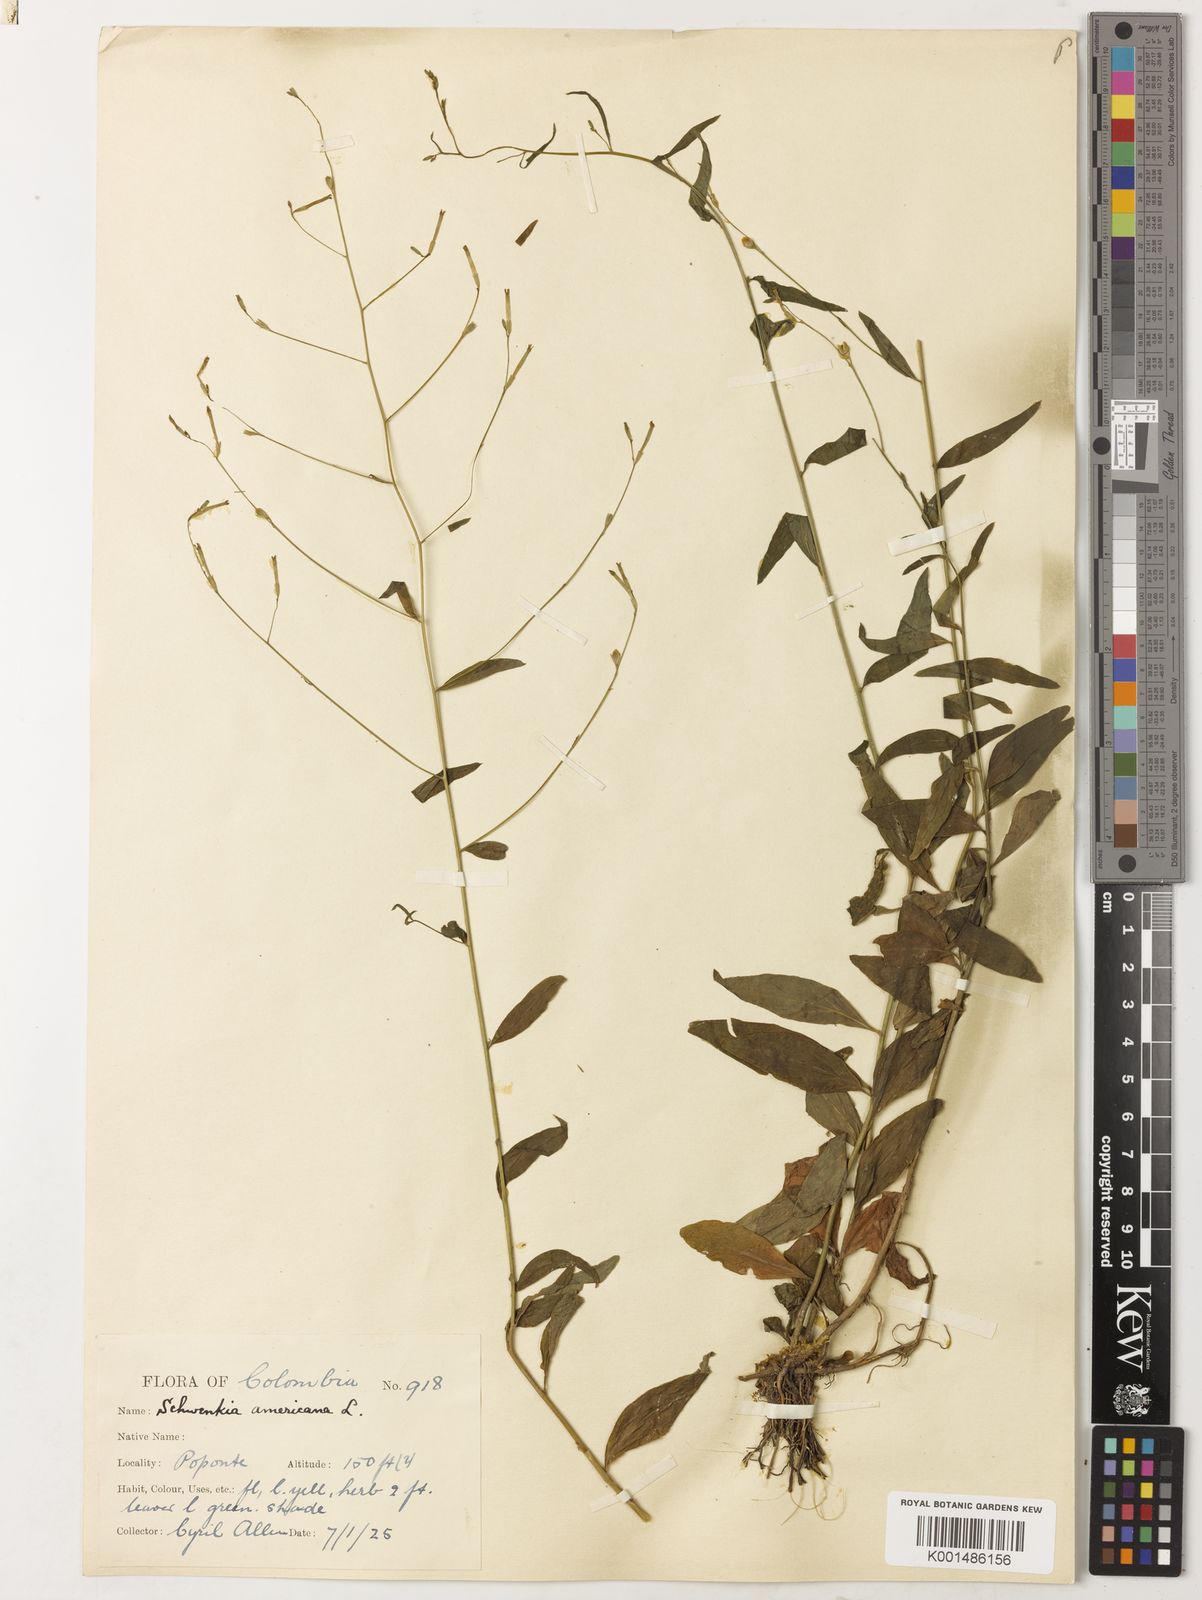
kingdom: Plantae
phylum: Tracheophyta
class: Magnoliopsida
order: Solanales
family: Solanaceae
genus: Schwenckia
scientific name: Schwenckia americana
